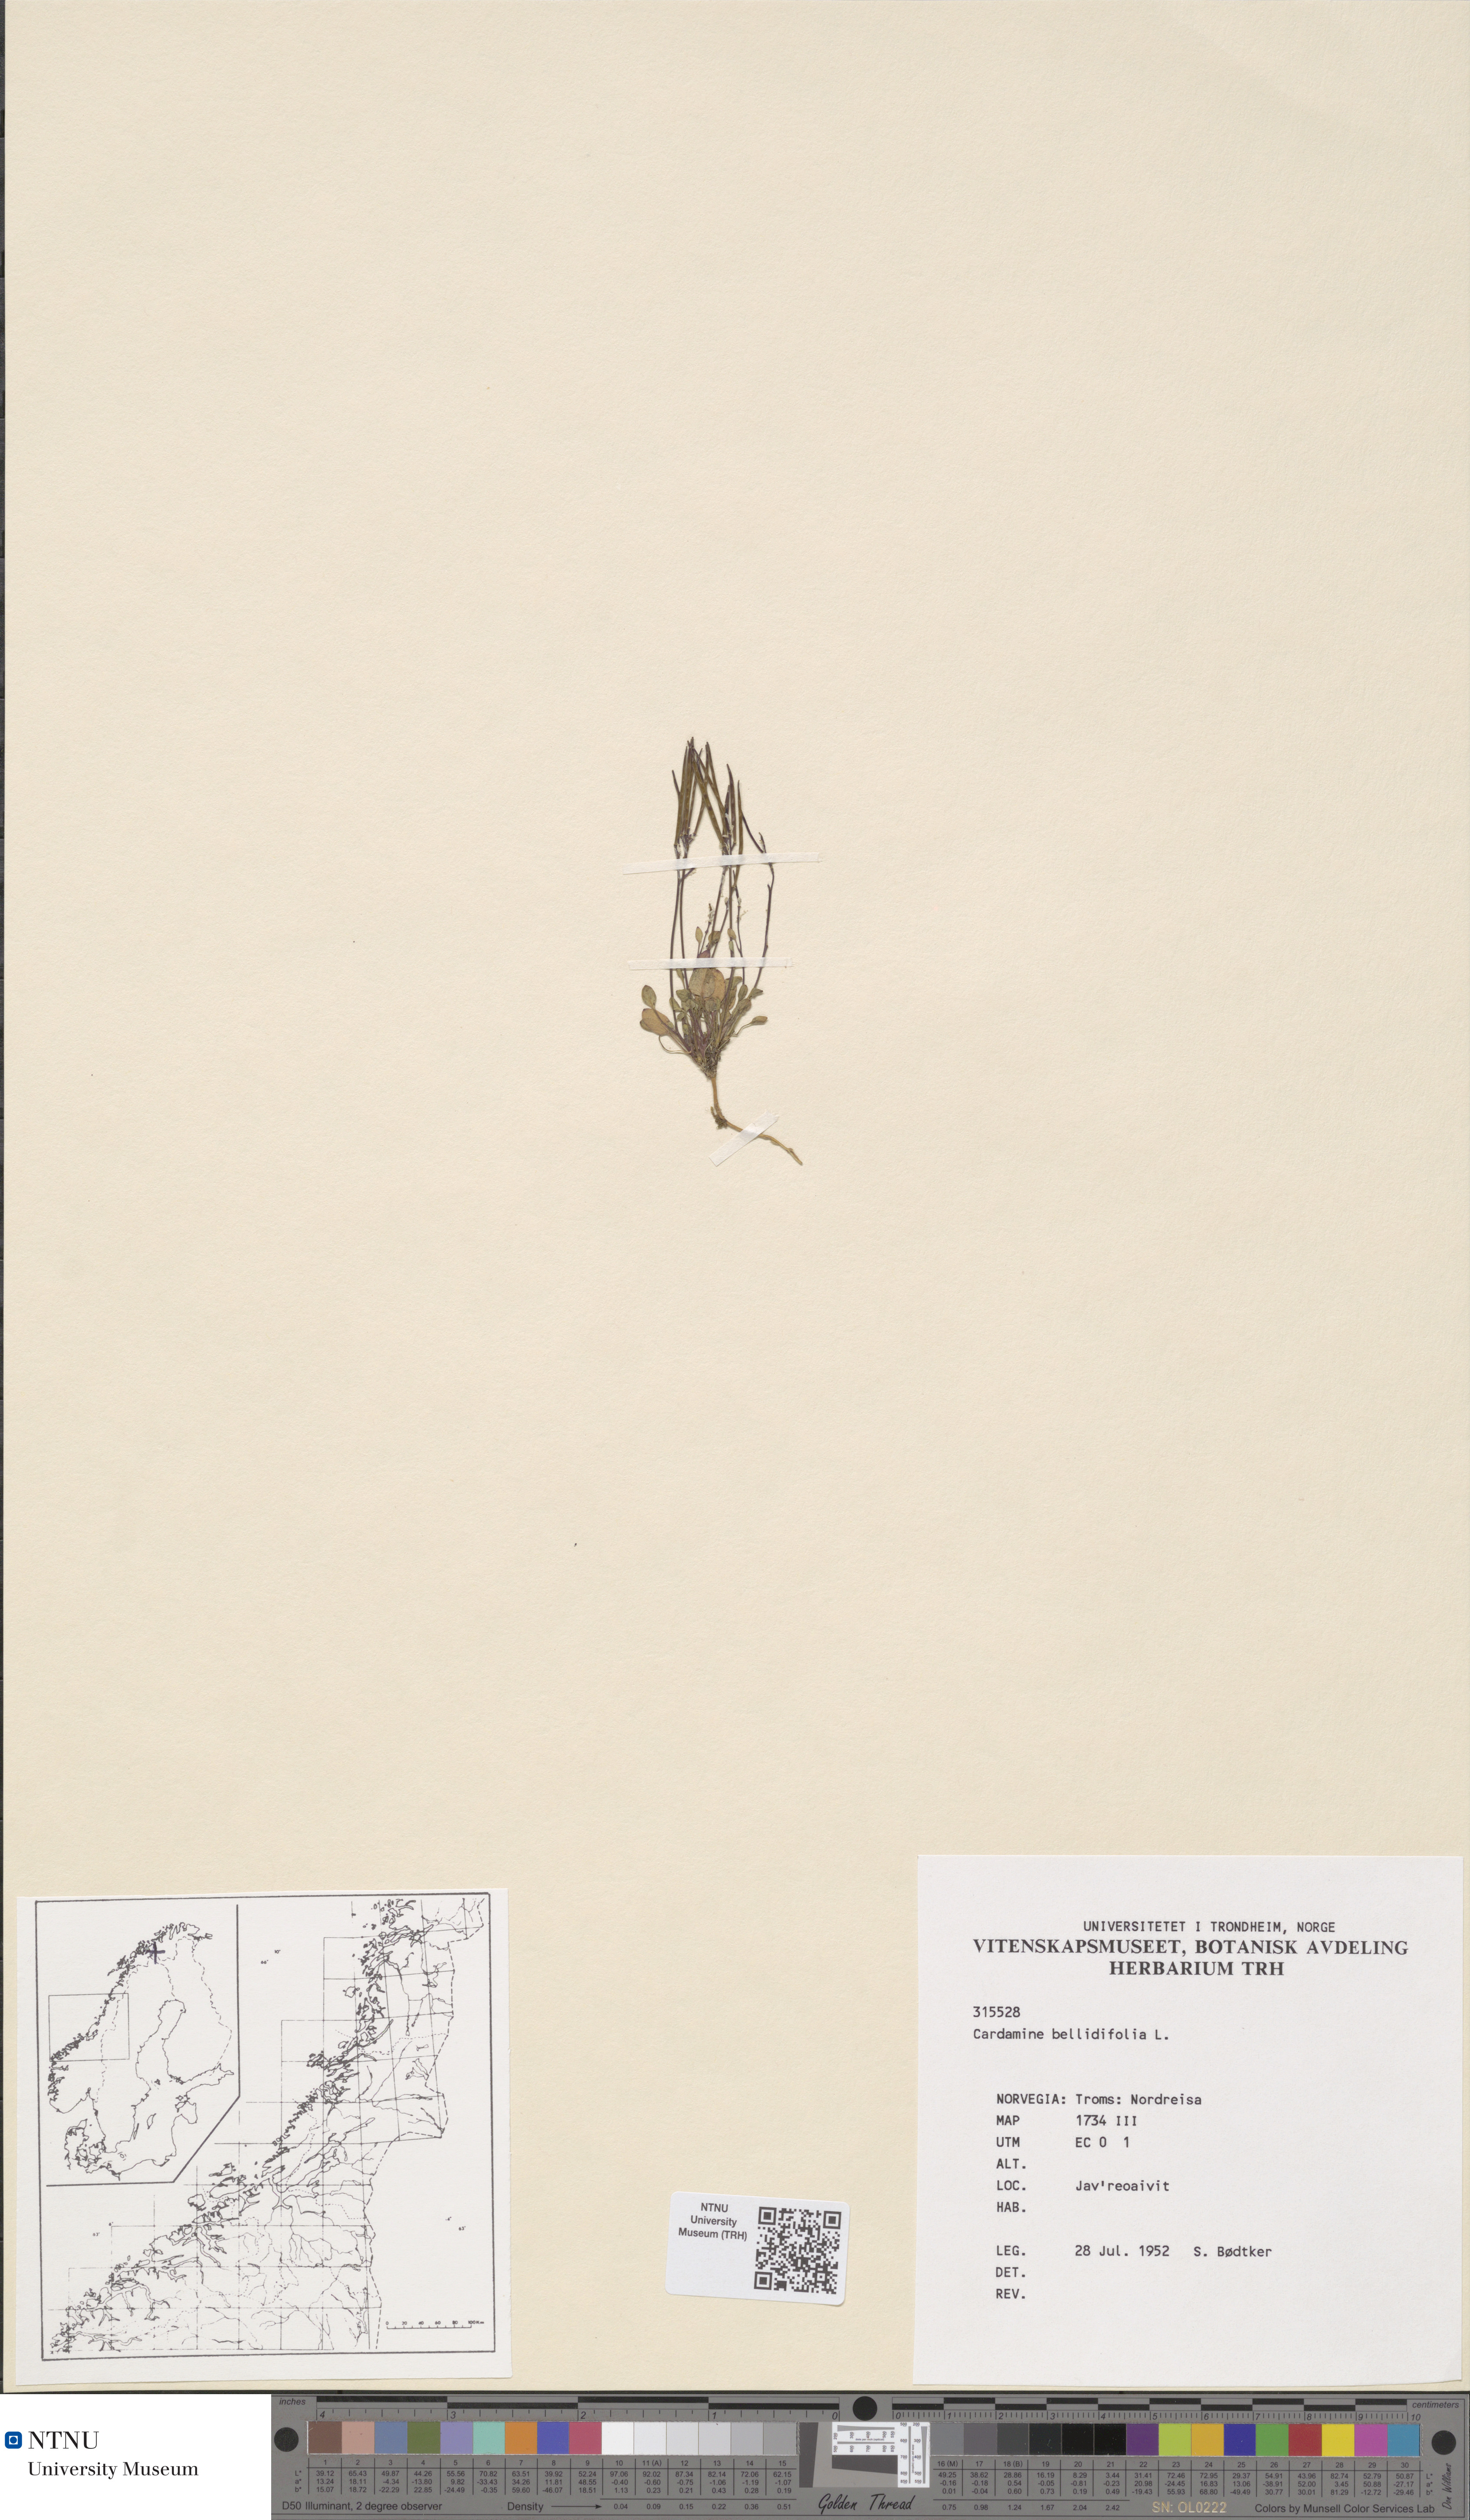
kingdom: Plantae
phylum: Tracheophyta
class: Magnoliopsida
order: Brassicales
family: Brassicaceae
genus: Cardamine
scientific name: Cardamine bellidifolia
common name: Alpine bittercress
